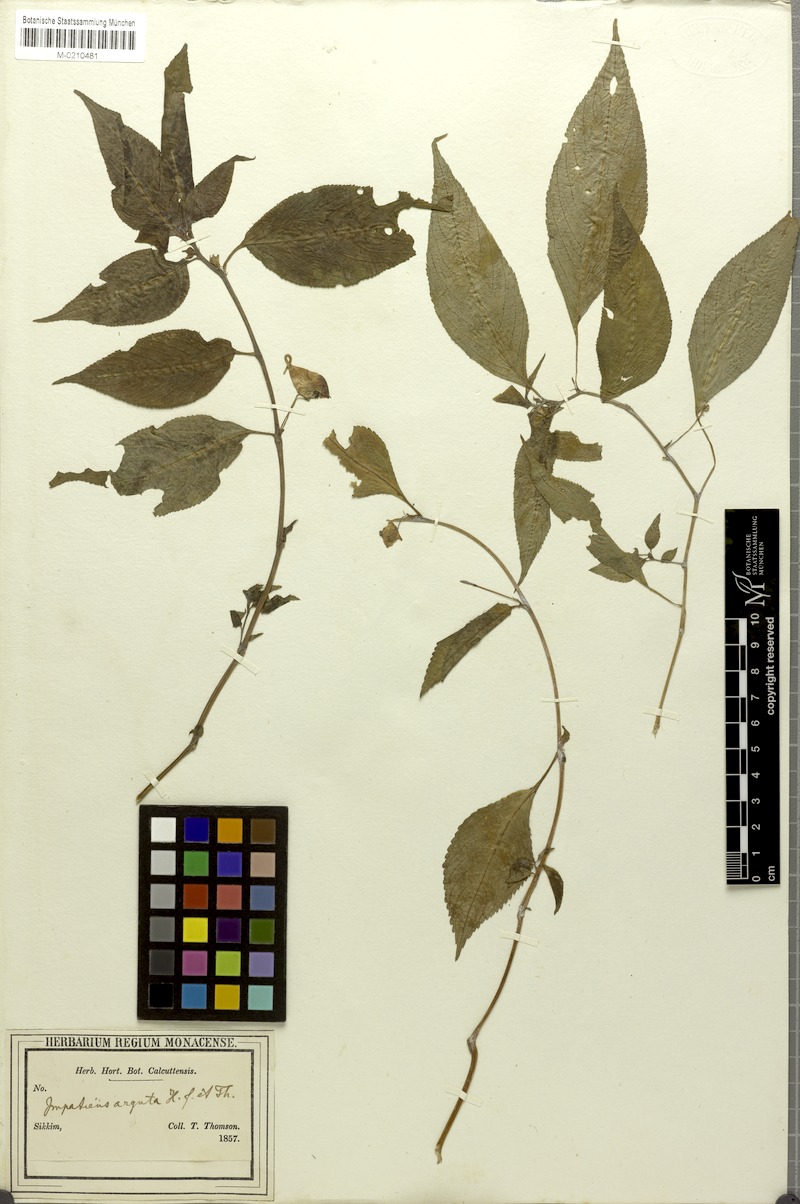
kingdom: Plantae
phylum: Tracheophyta
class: Magnoliopsida
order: Ericales
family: Balsaminaceae
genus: Impatiens
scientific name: Impatiens arguta
